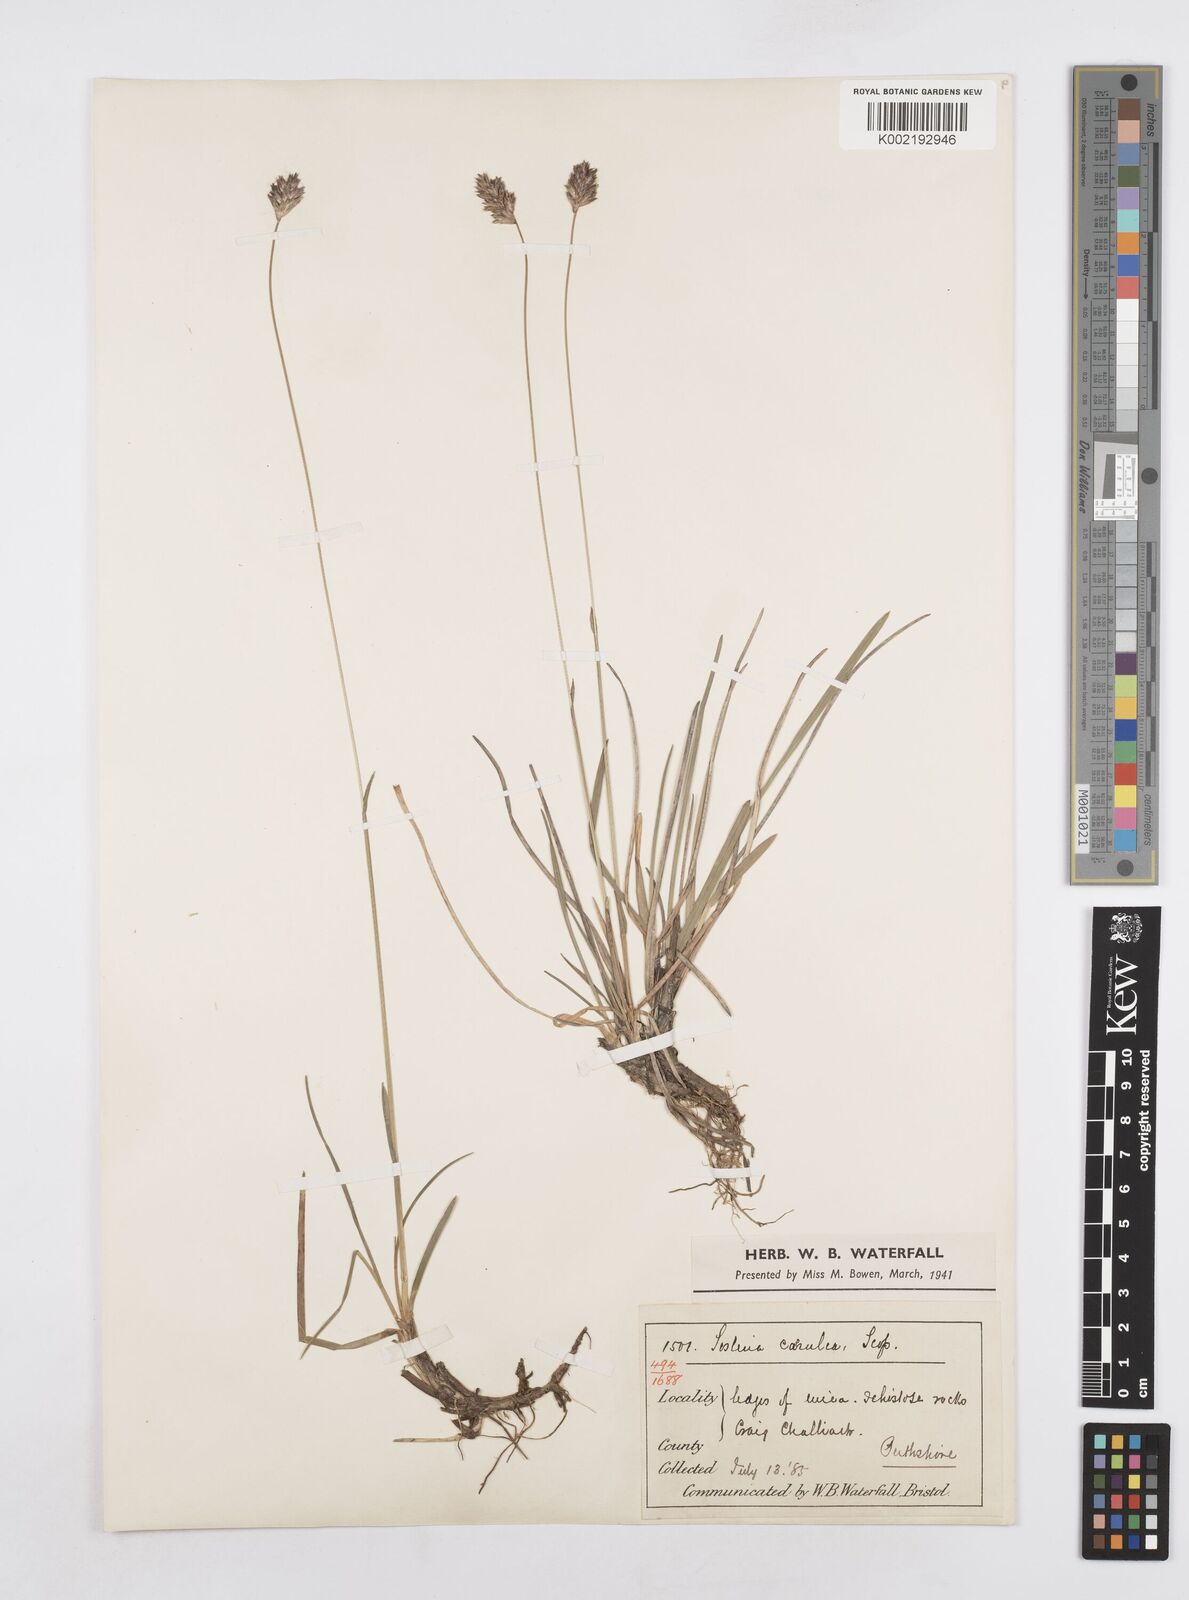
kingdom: Plantae
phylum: Tracheophyta
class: Liliopsida
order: Poales
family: Poaceae
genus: Sesleria
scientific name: Sesleria caerulea
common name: Blue moor-grass
